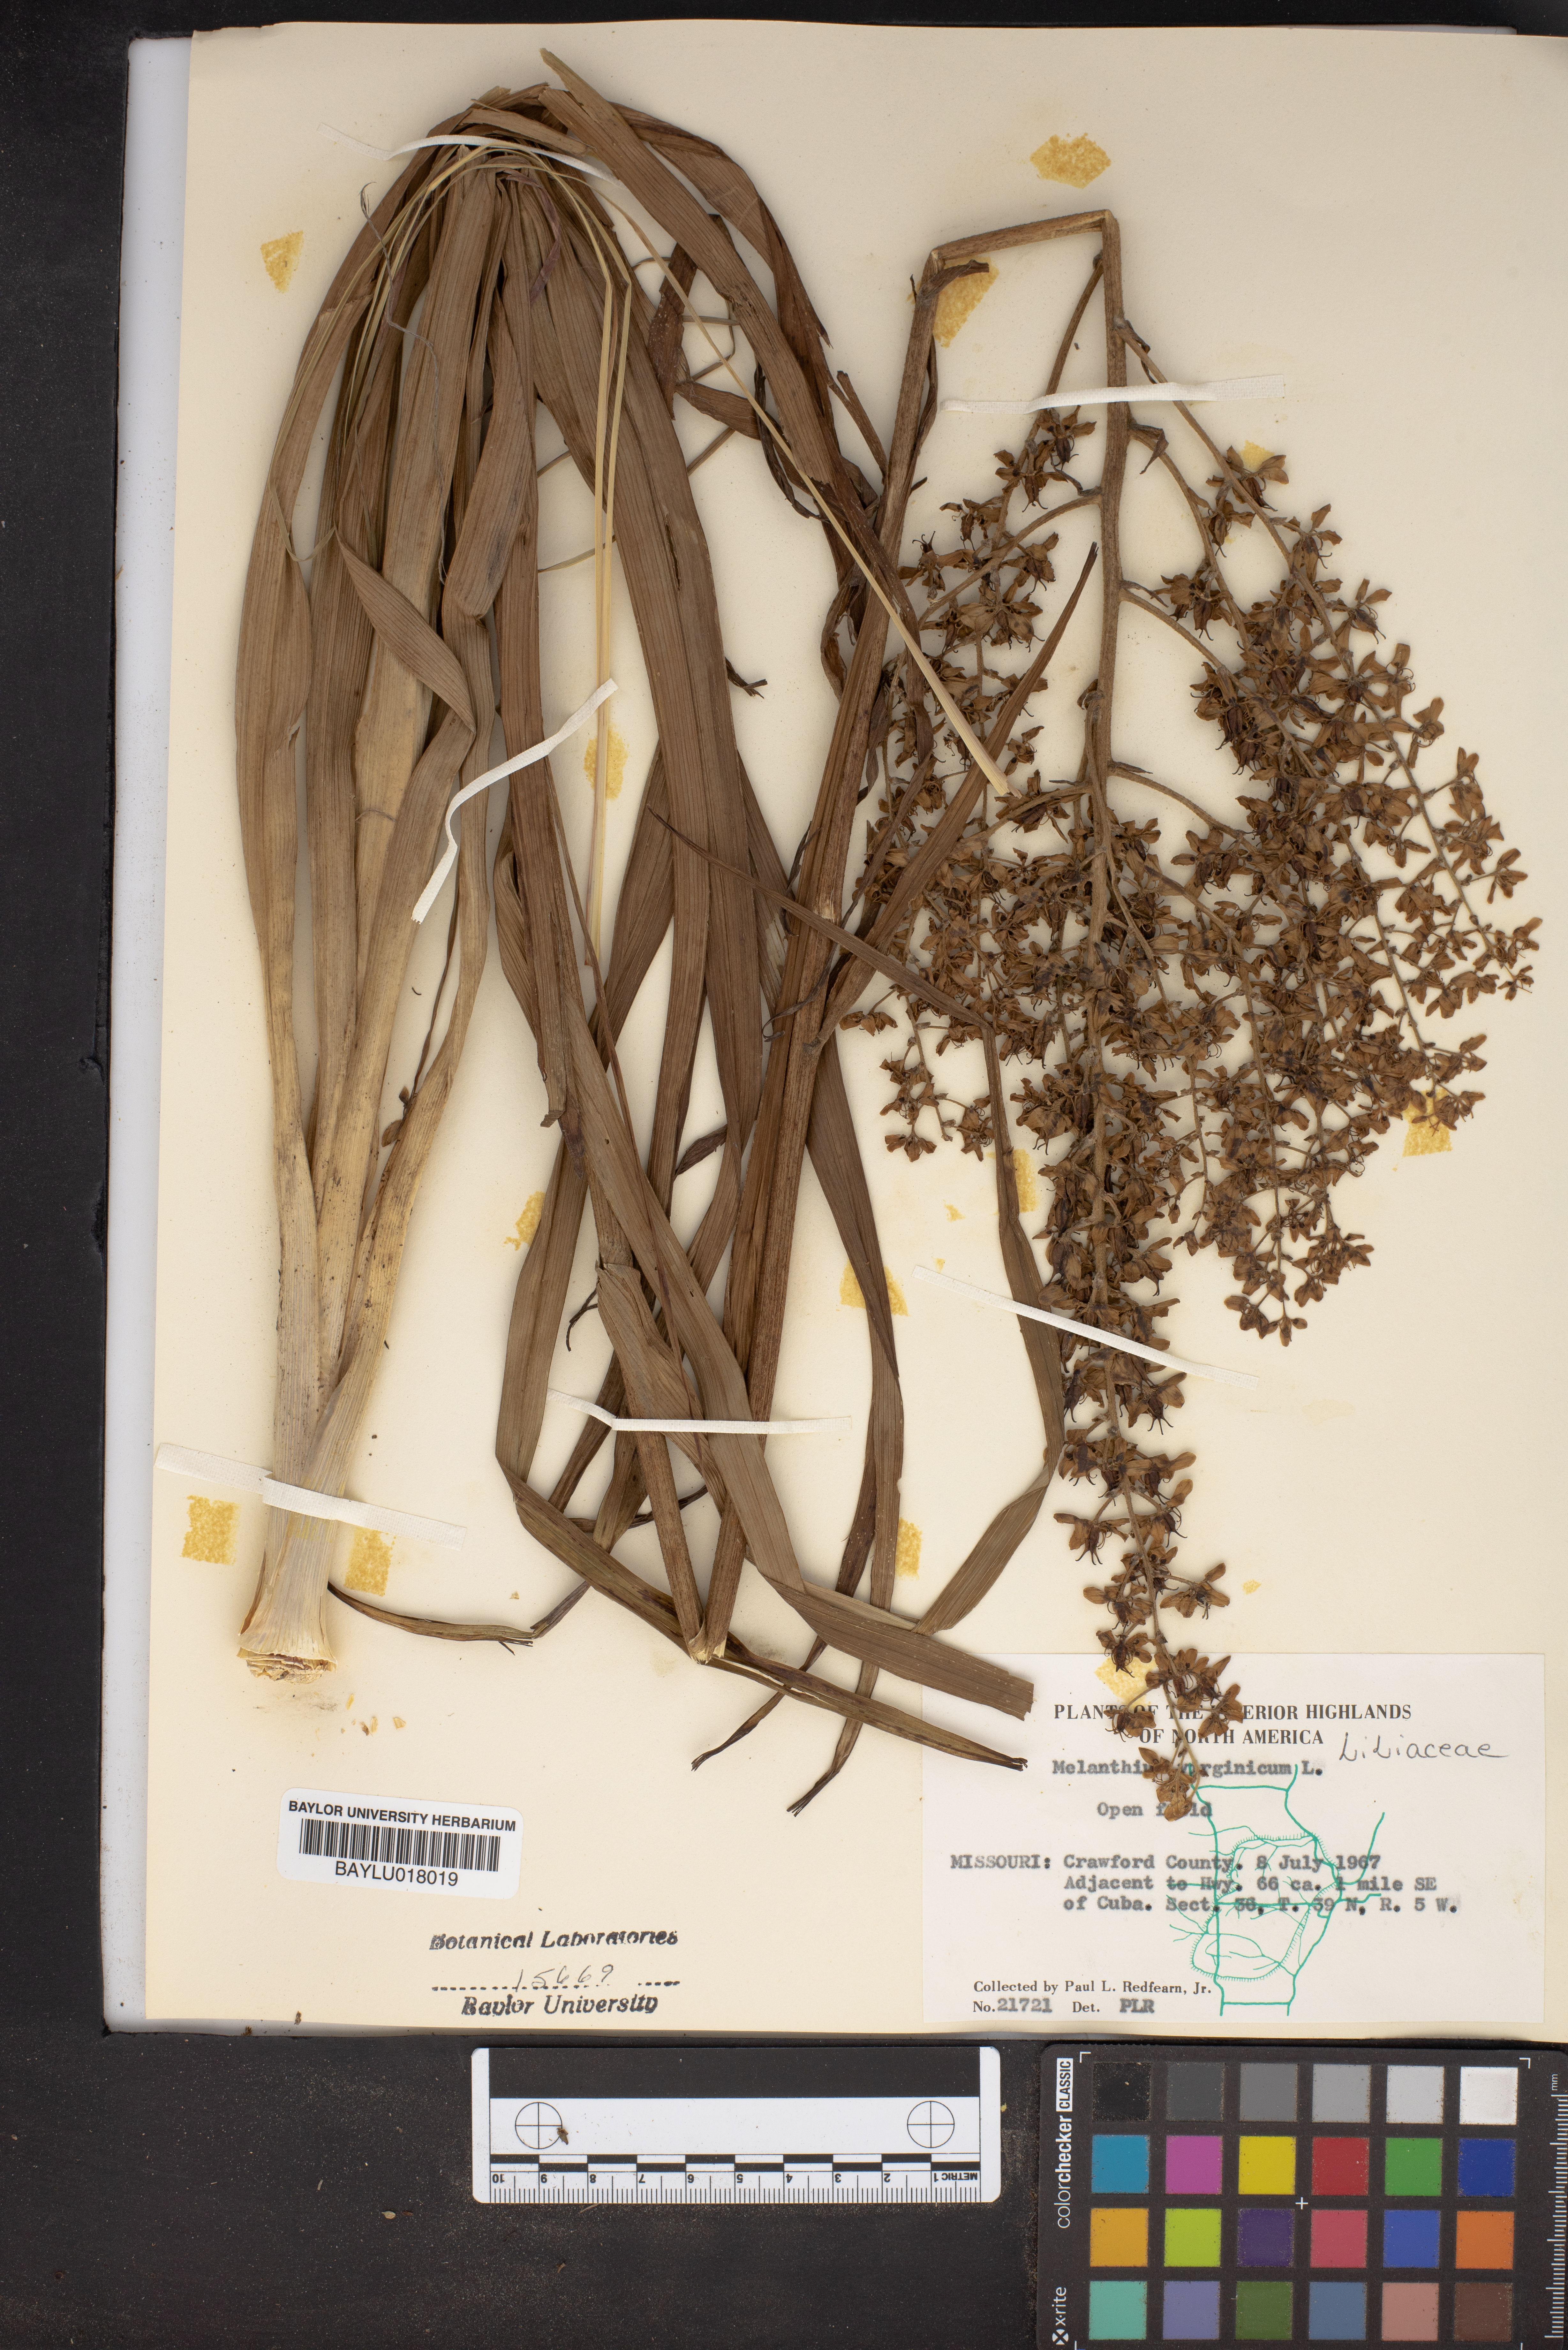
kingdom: Plantae
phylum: Tracheophyta
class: Liliopsida
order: Liliales
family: Melanthiaceae
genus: Melanthium
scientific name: Melanthium virginicum
